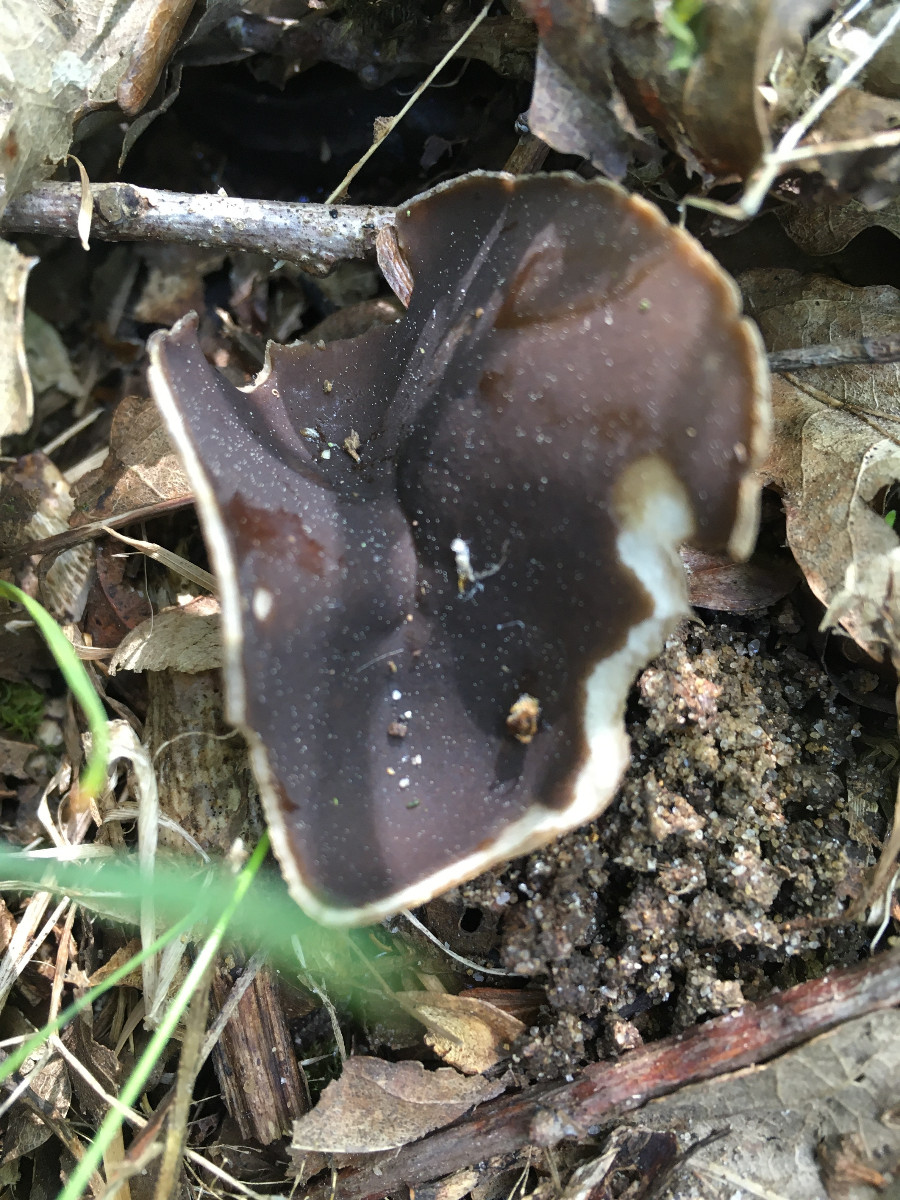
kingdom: Fungi
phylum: Ascomycota
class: Pezizomycetes
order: Pezizales
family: Helvellaceae
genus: Helvella
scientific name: Helvella solitaria
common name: Quélets foldhat
